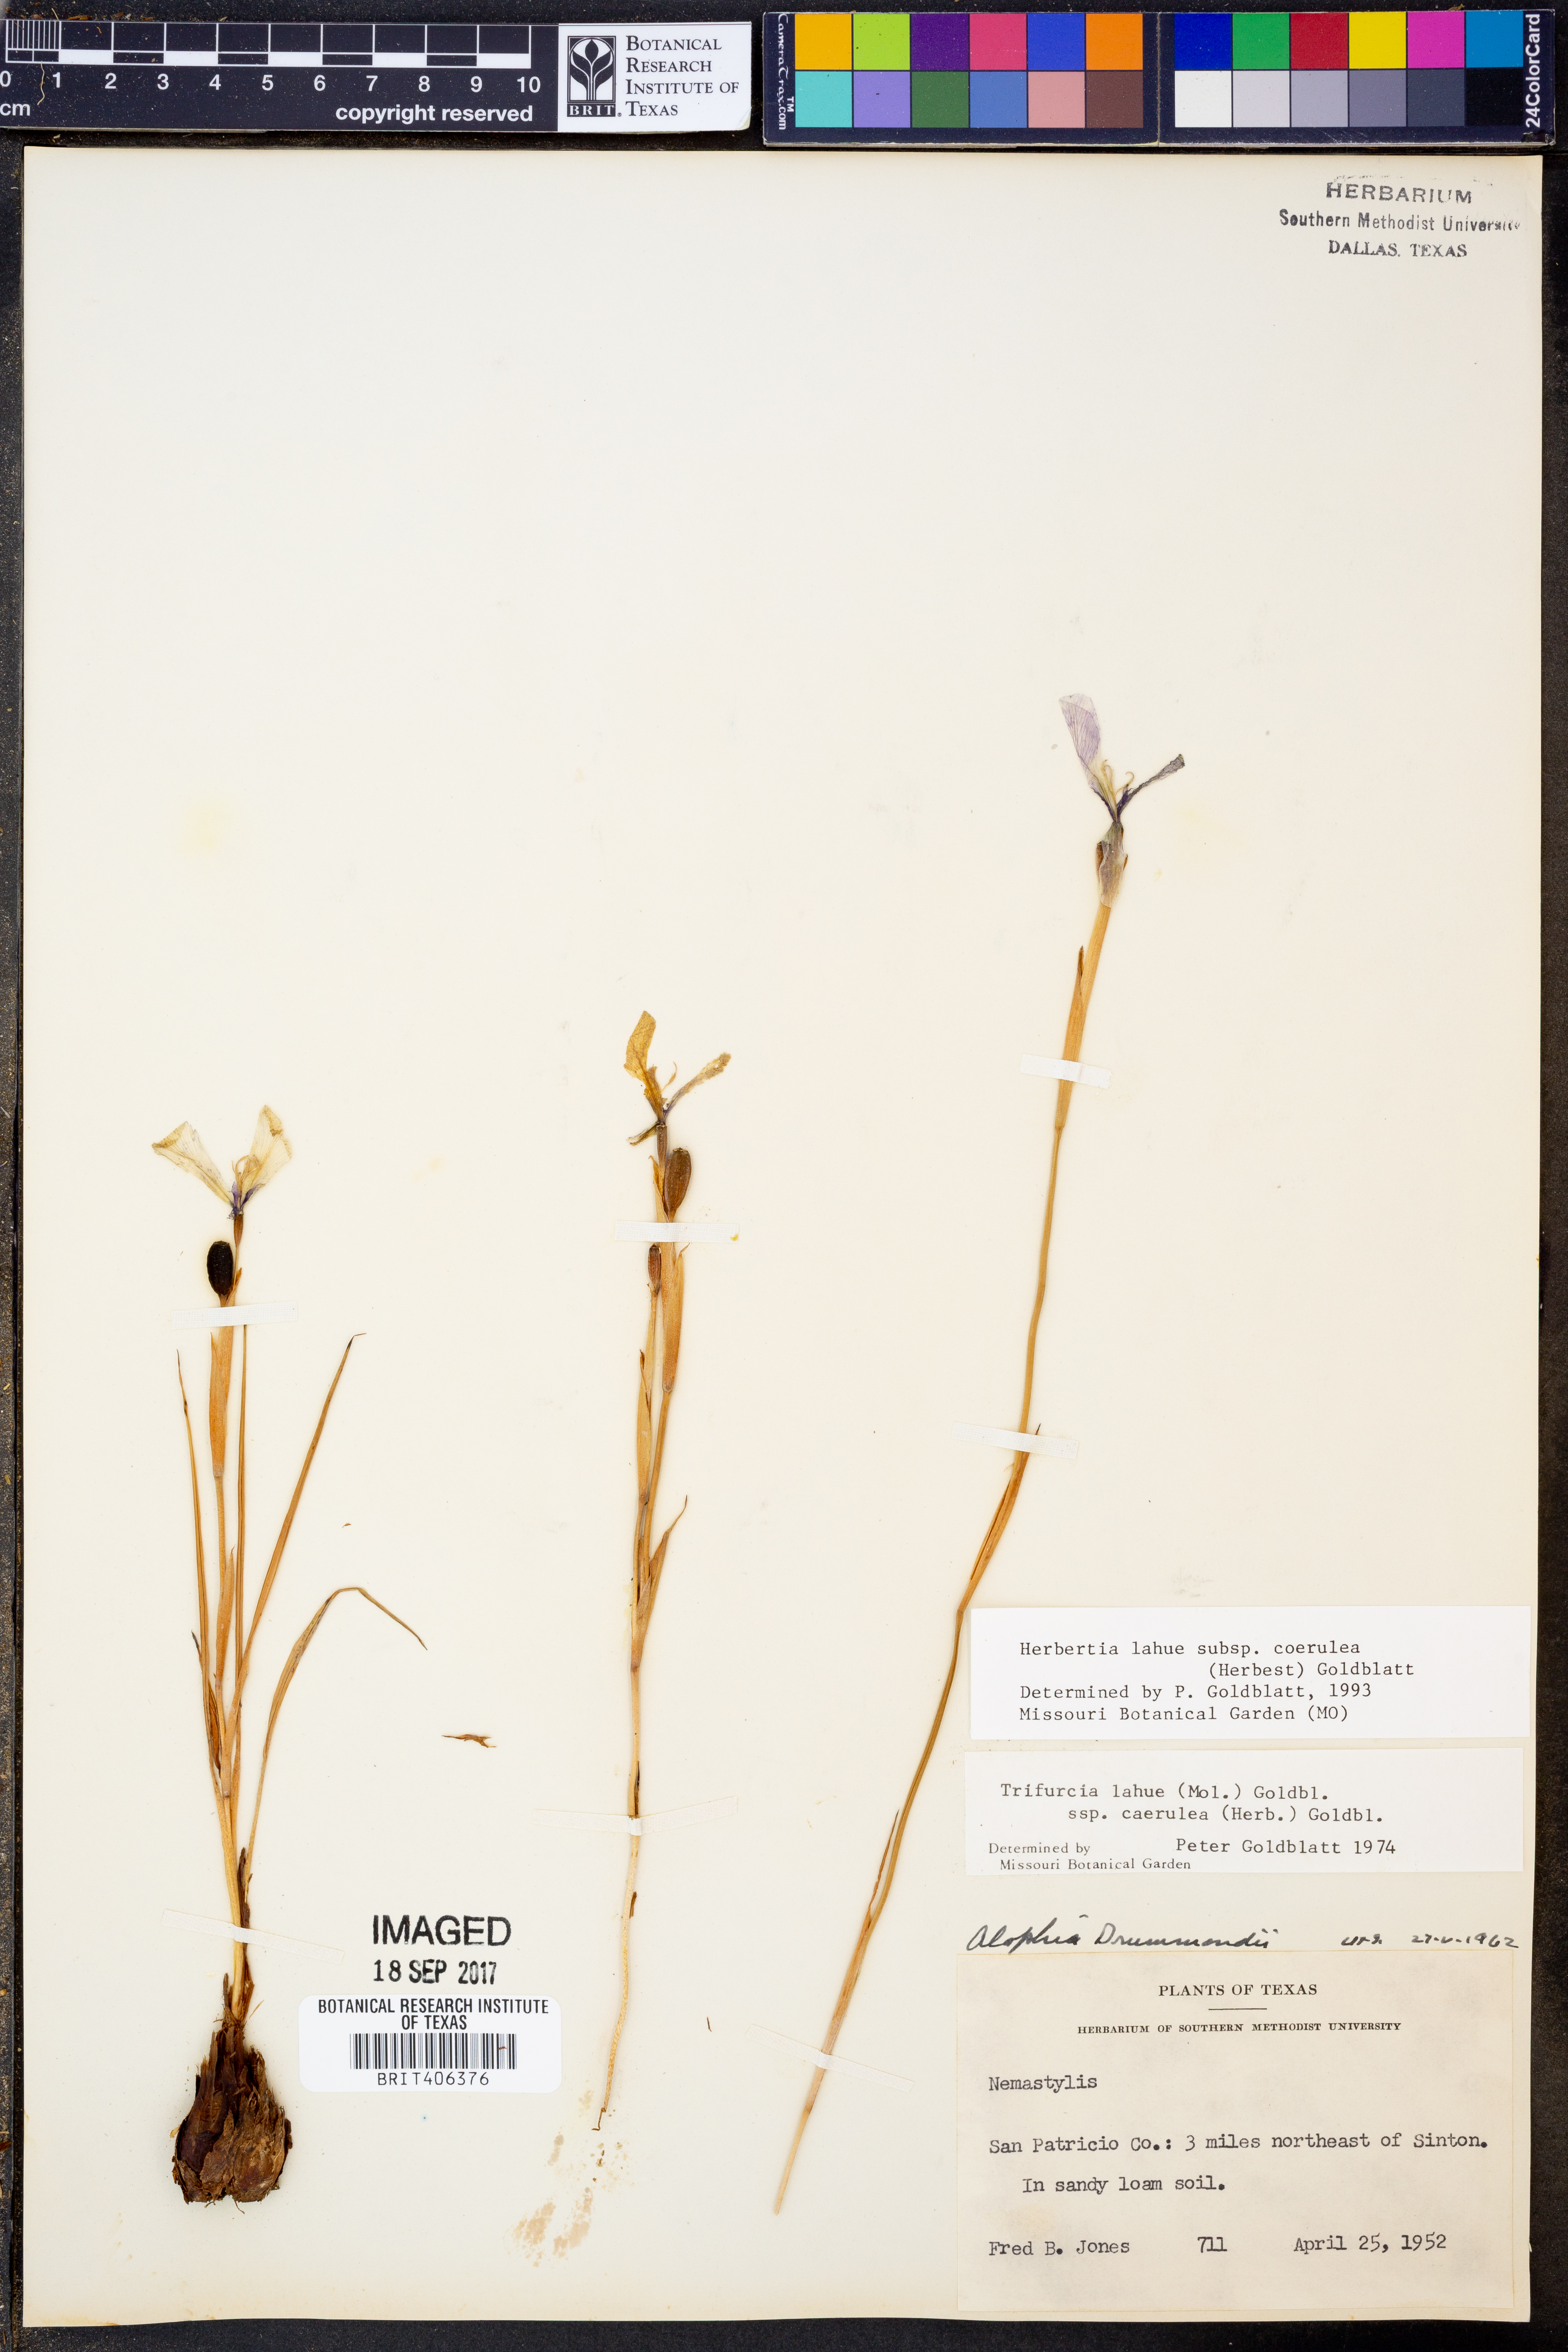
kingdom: Plantae
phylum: Tracheophyta
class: Liliopsida
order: Asparagales
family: Iridaceae
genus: Herbertia
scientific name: Herbertia lahue
